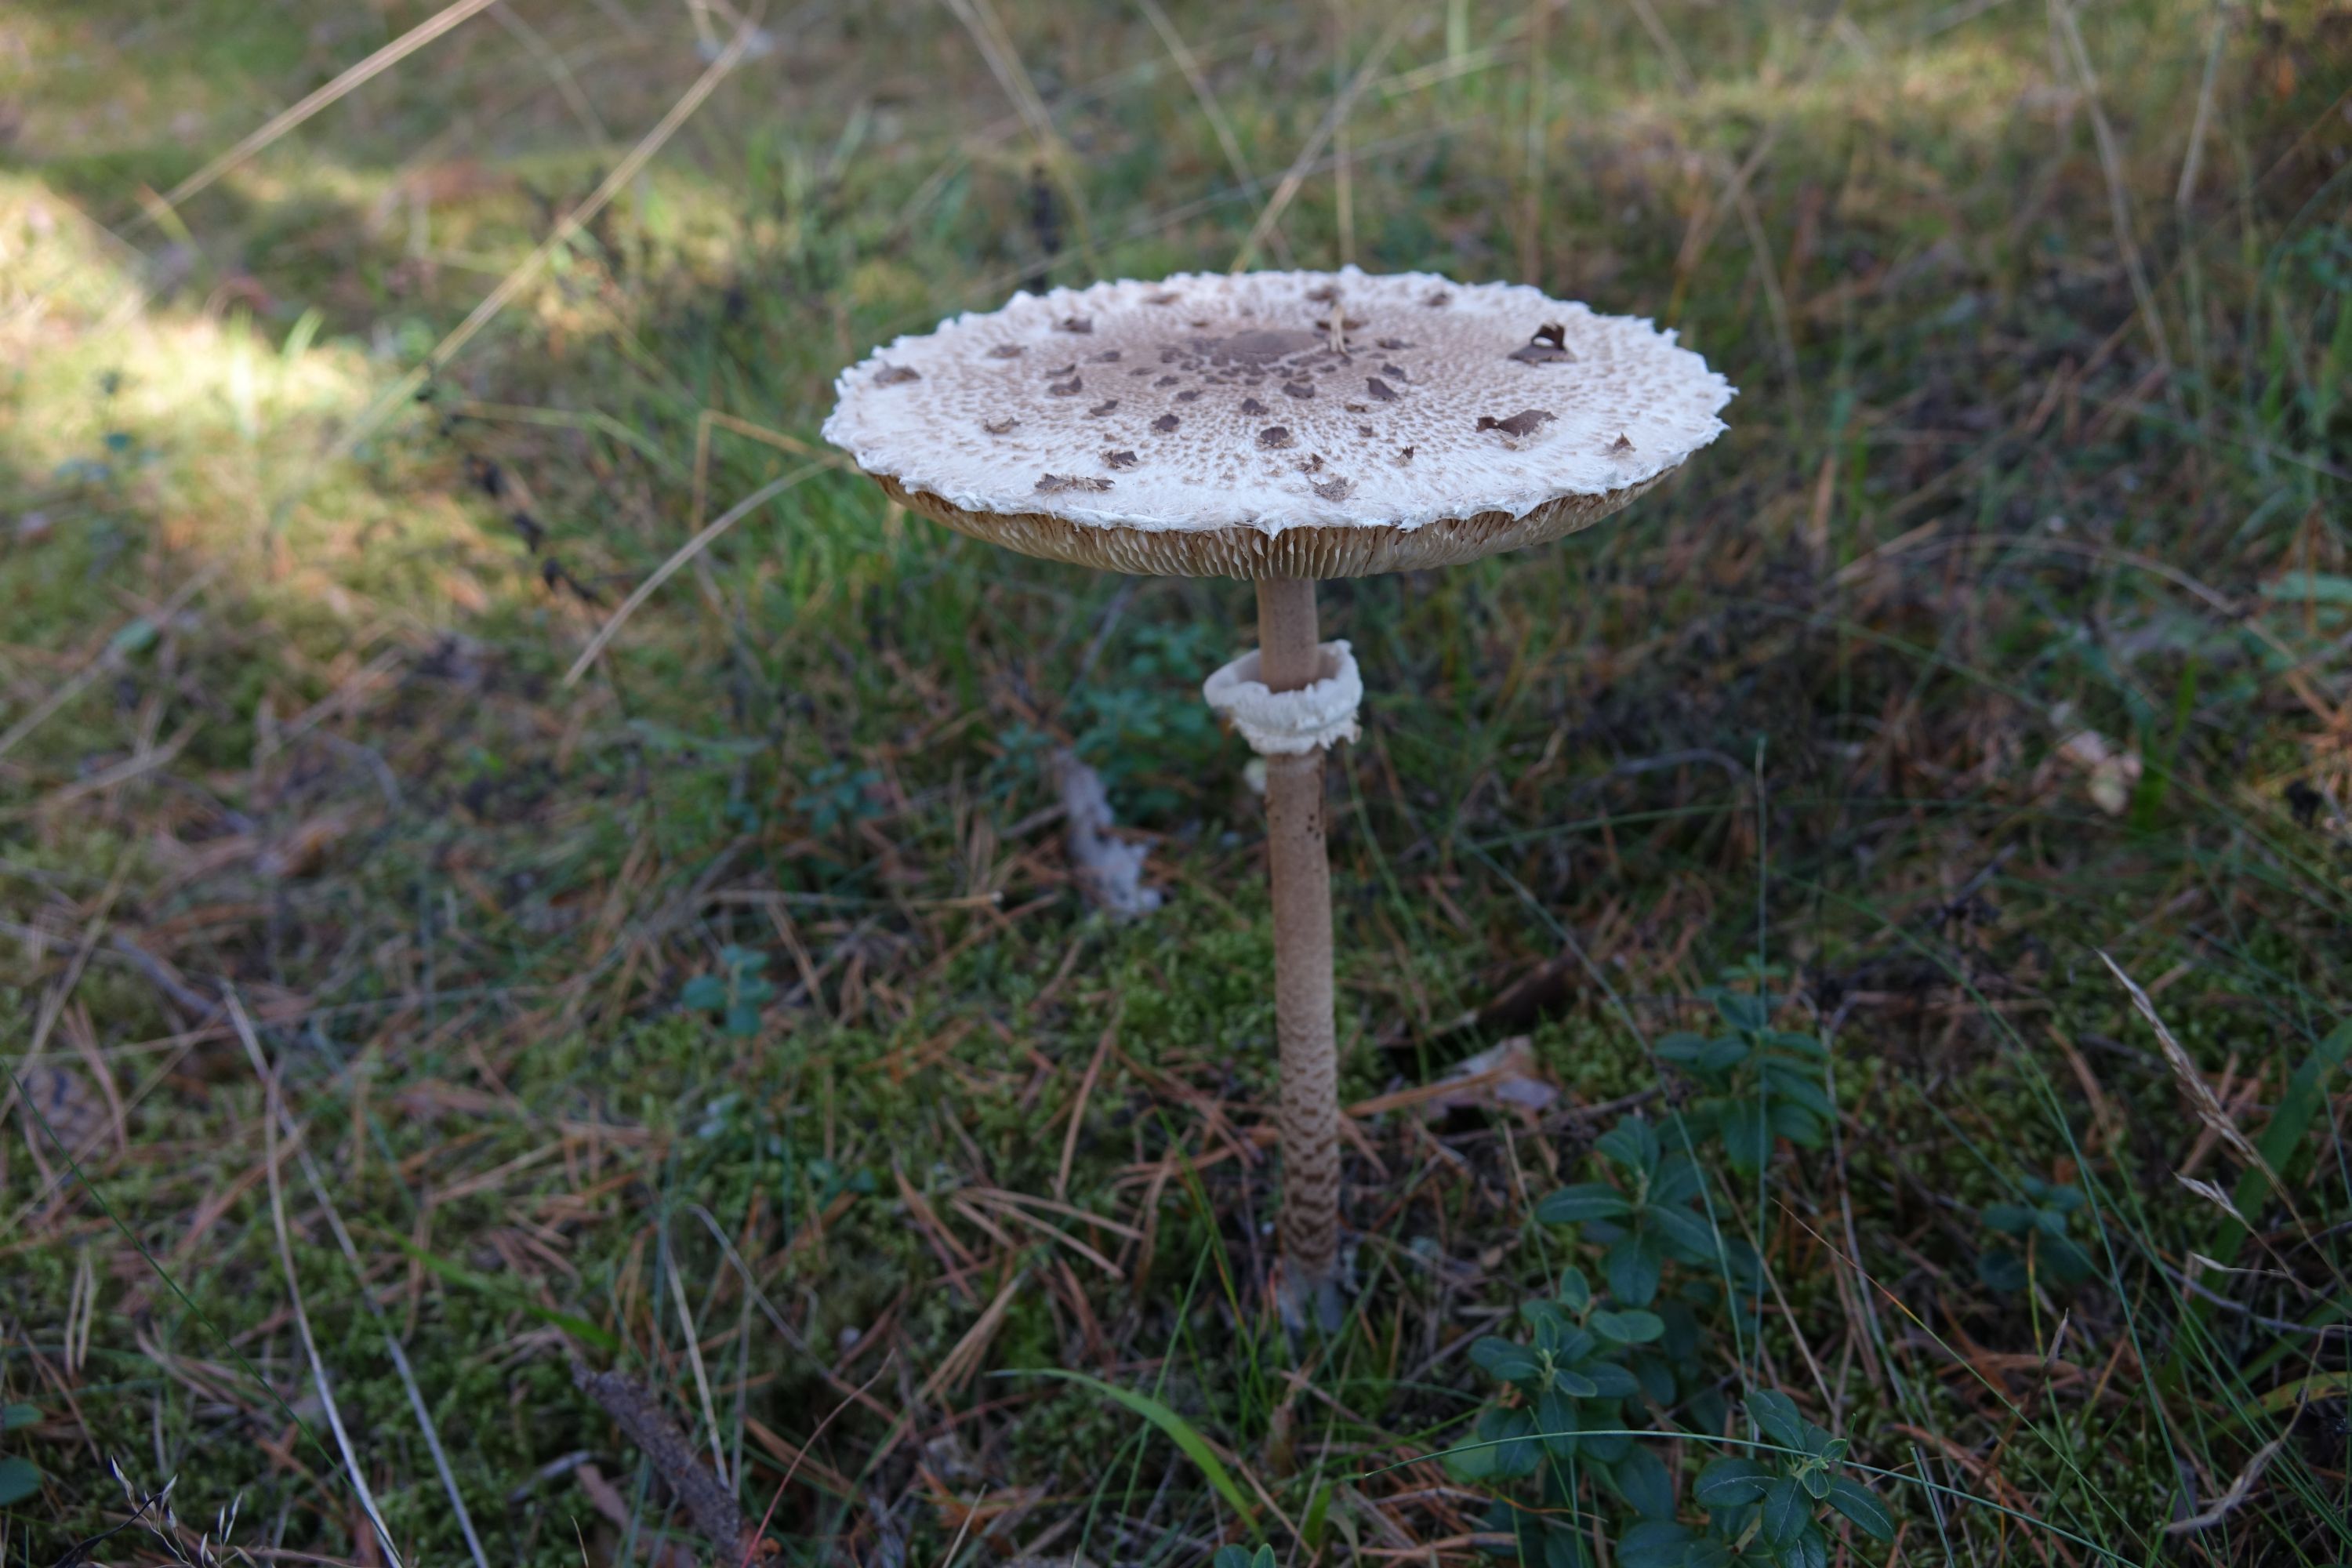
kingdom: Fungi
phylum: Basidiomycota
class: Agaricomycetes
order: Agaricales
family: Agaricaceae
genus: Macrolepiota
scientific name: Macrolepiota procera
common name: Parasol
